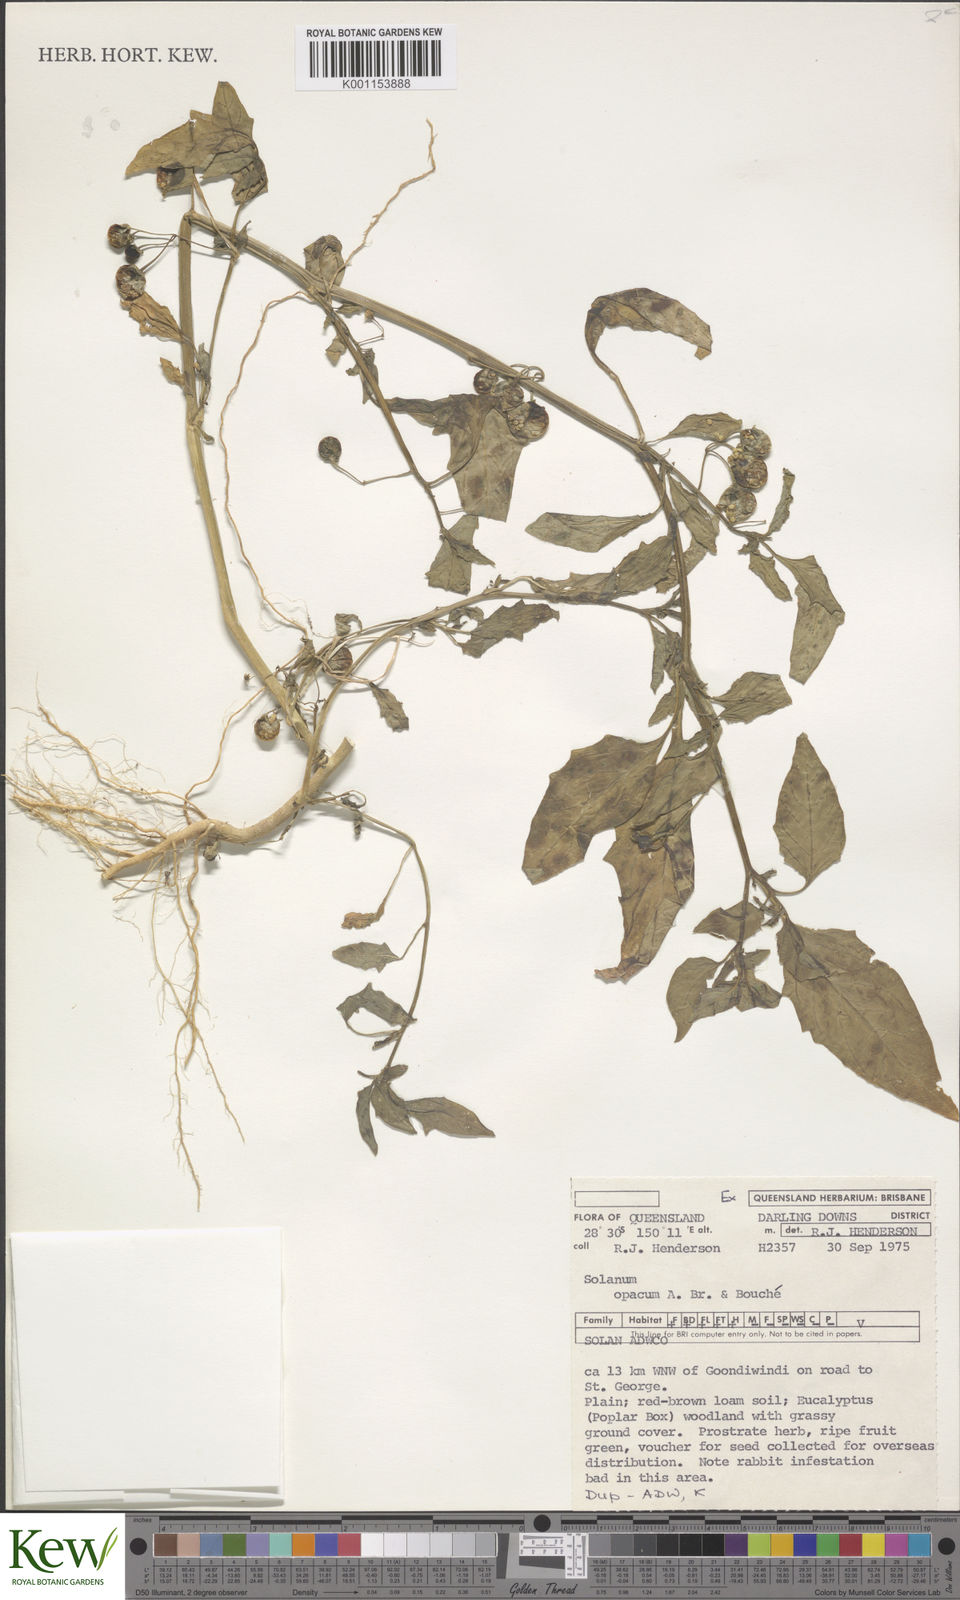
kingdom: Plantae
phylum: Tracheophyta
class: Magnoliopsida
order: Solanales
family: Solanaceae
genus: Solanum
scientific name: Solanum
